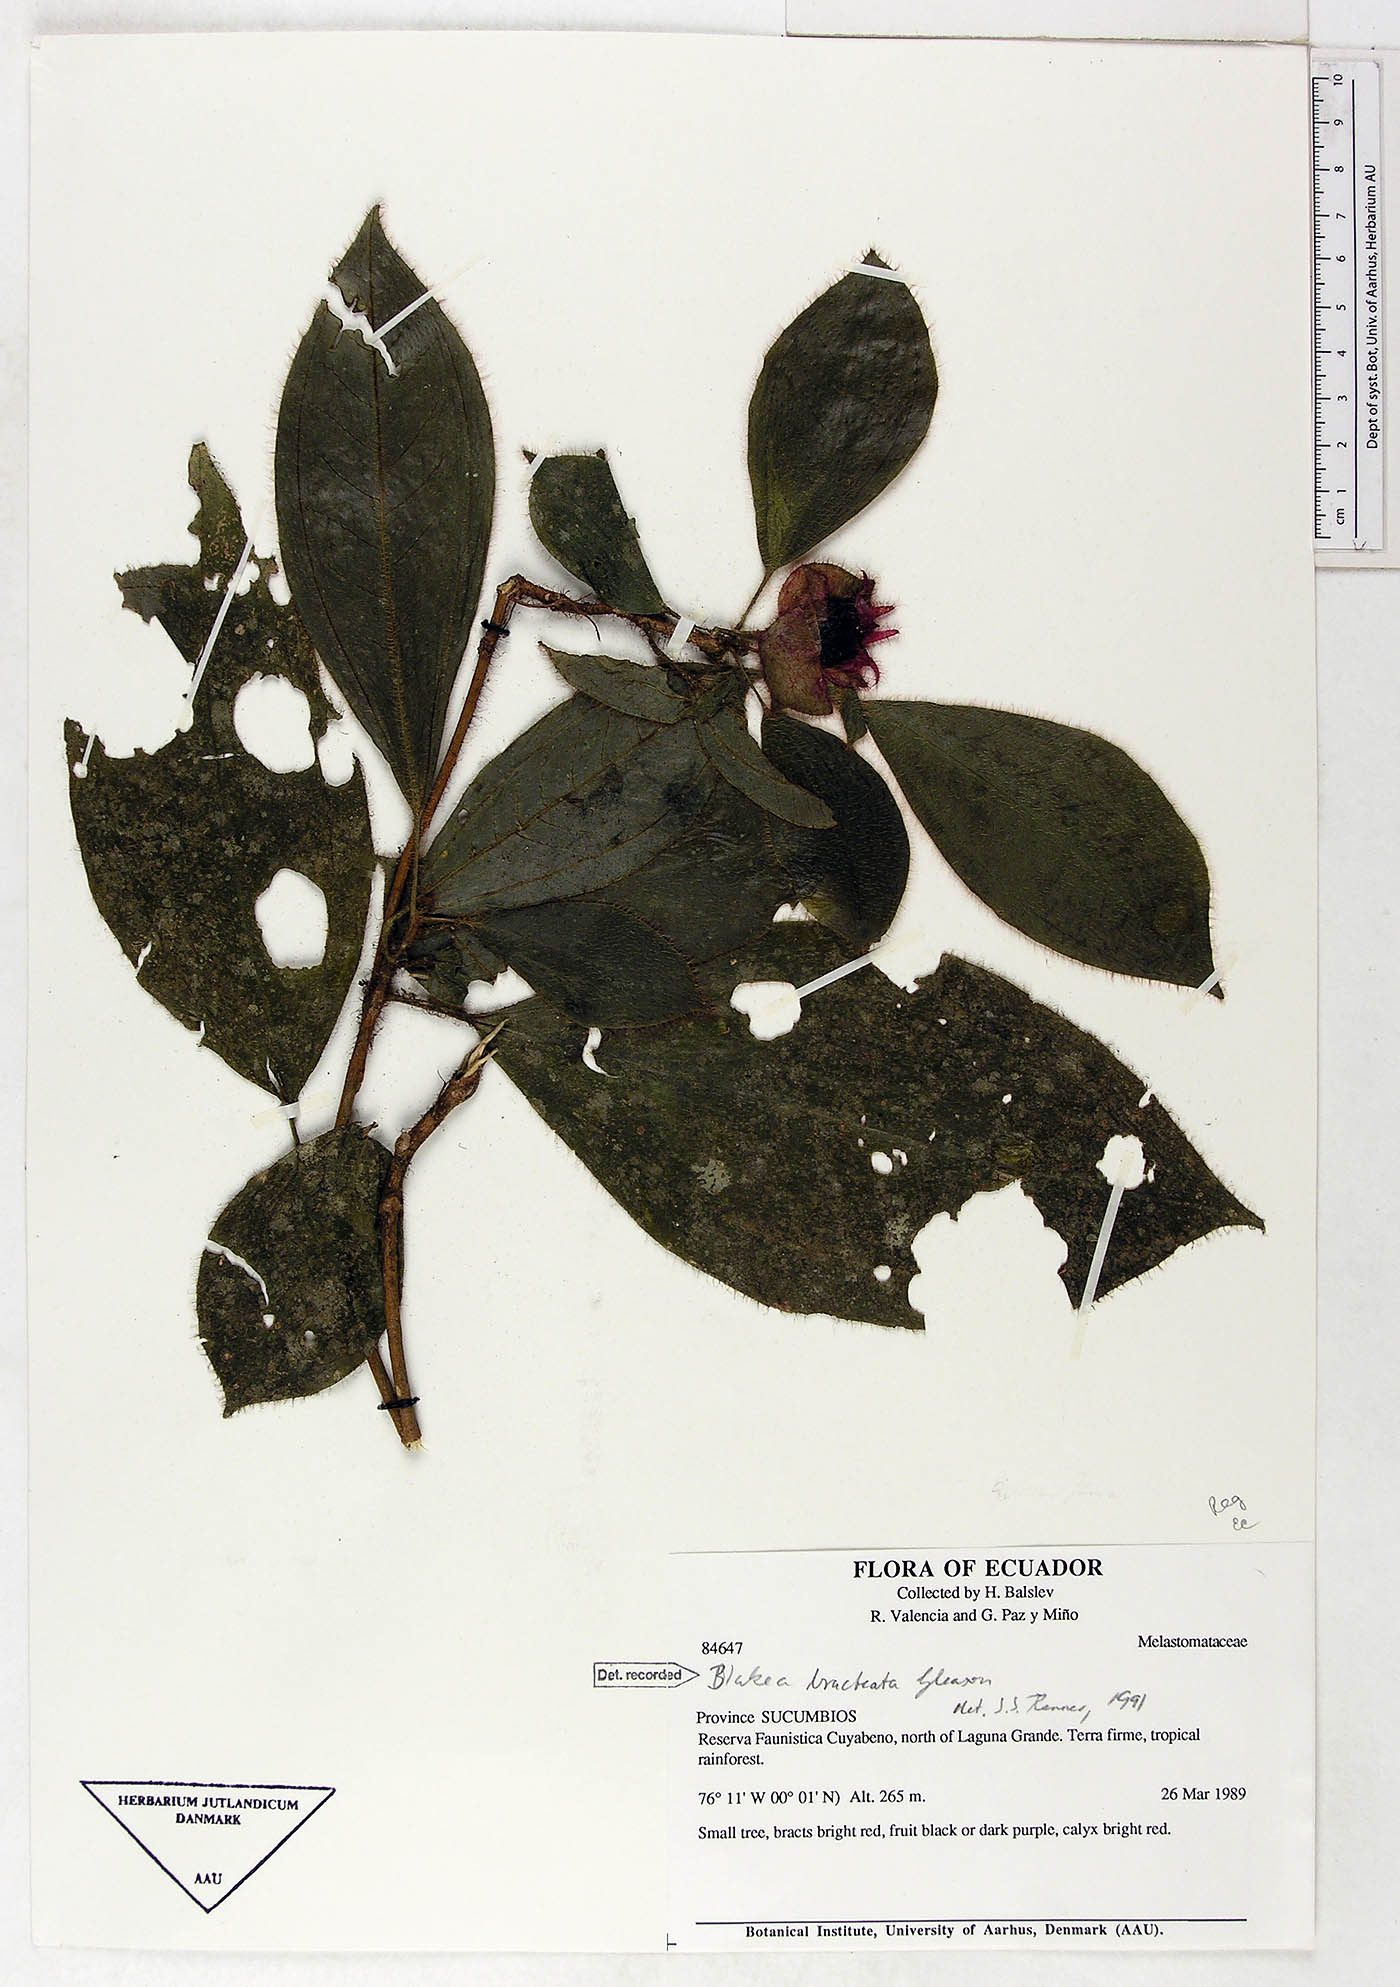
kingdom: Plantae
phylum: Tracheophyta
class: Magnoliopsida
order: Myrtales
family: Melastomataceae
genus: Blakea
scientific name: Blakea bracteata
